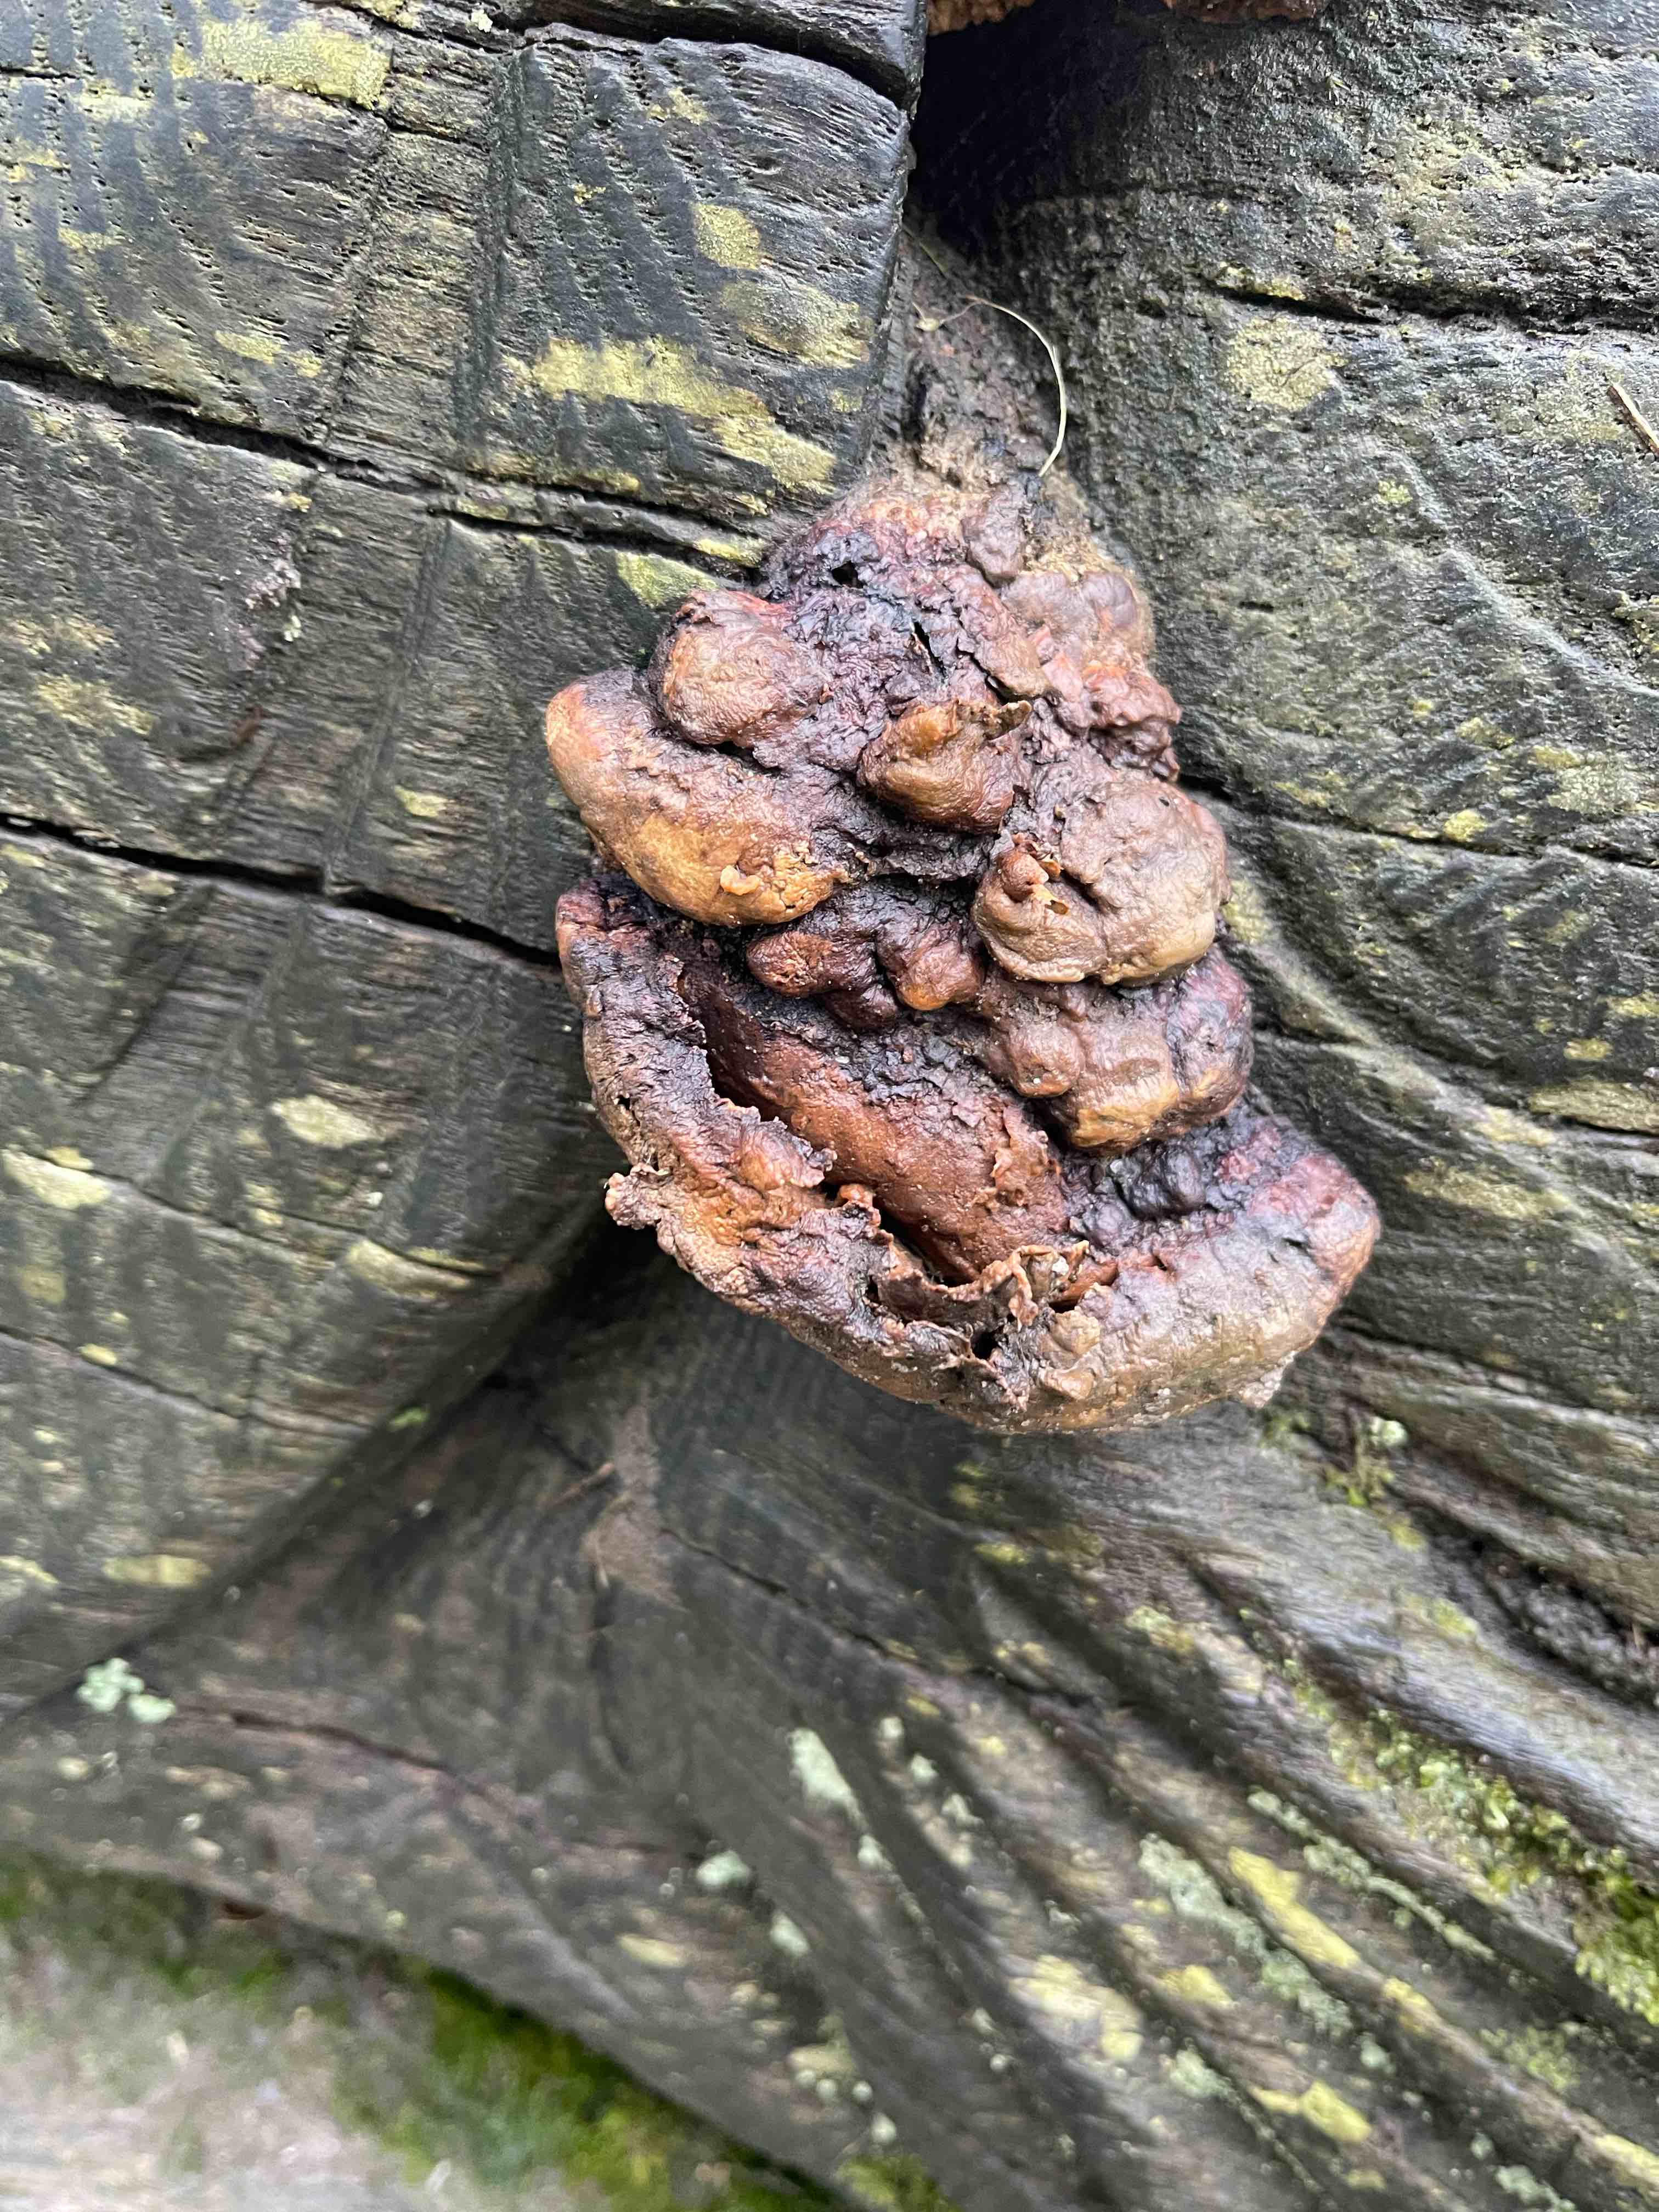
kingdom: Fungi
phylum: Basidiomycota
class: Agaricomycetes
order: Polyporales
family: Fomitopsidaceae
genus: Daedalea
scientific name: Daedalea quercina
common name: ege-labyrintsvamp
